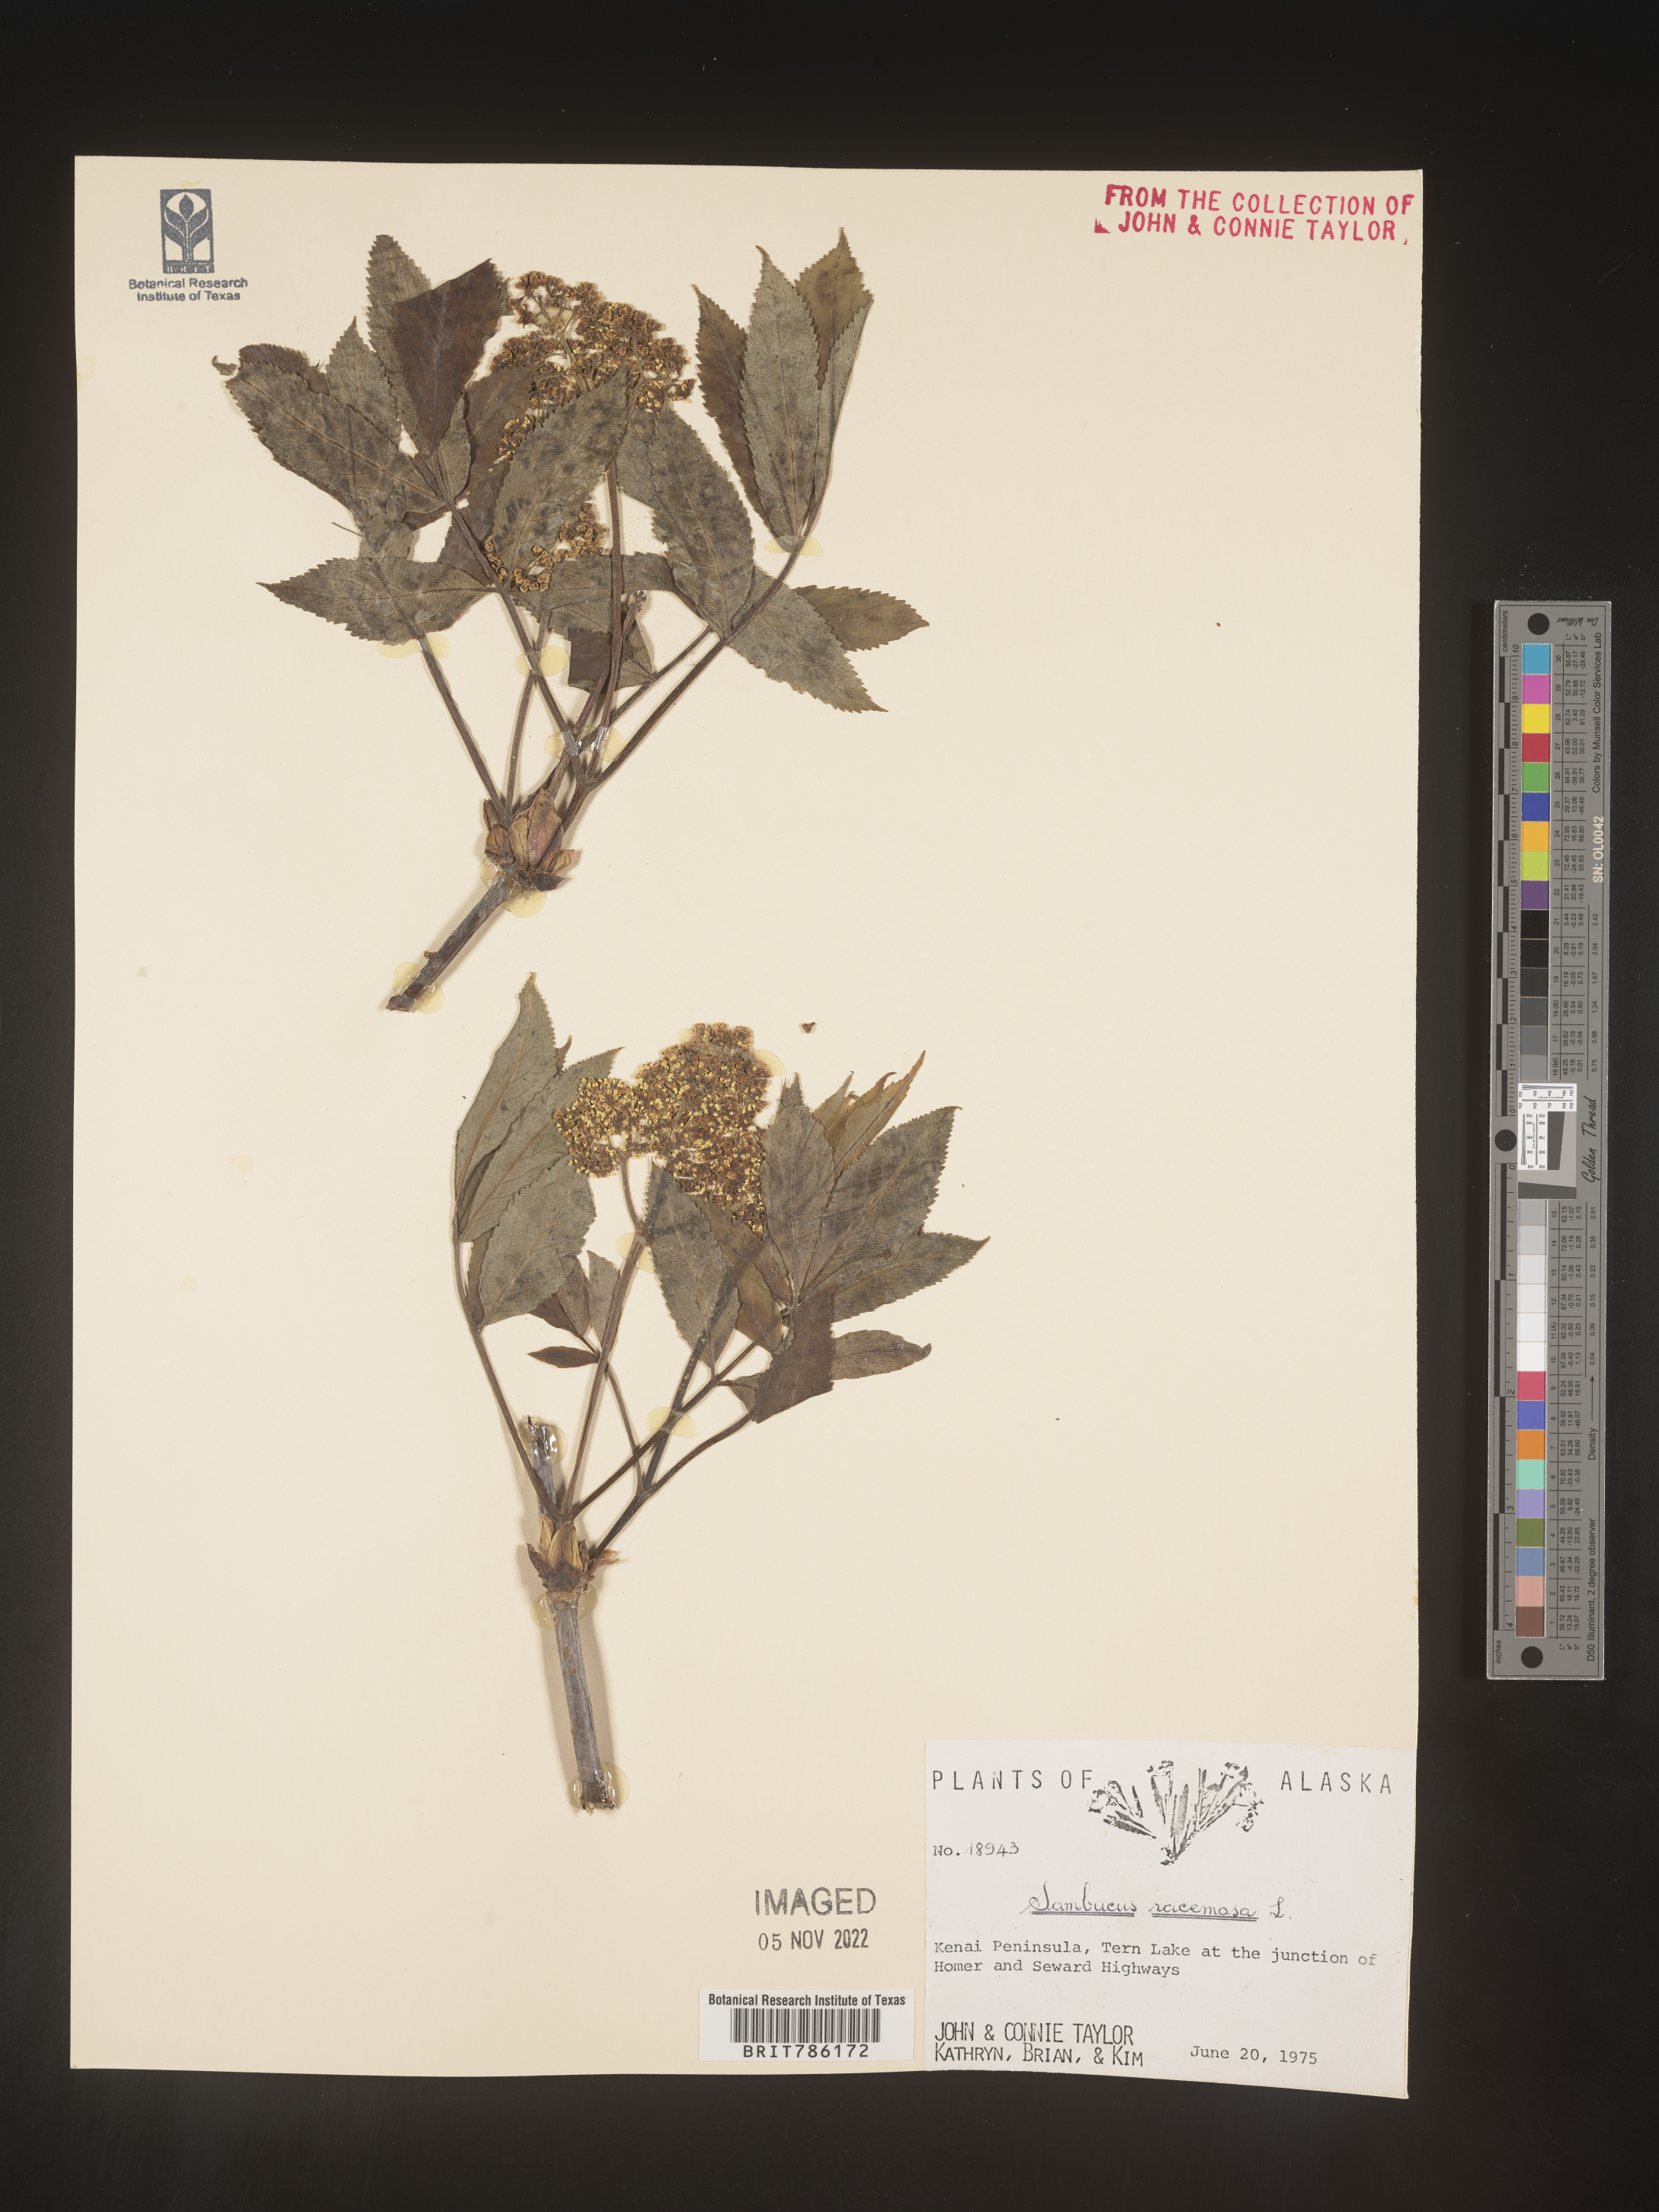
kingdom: Plantae
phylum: Tracheophyta
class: Magnoliopsida
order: Dipsacales
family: Viburnaceae
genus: Sambucus
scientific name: Sambucus
